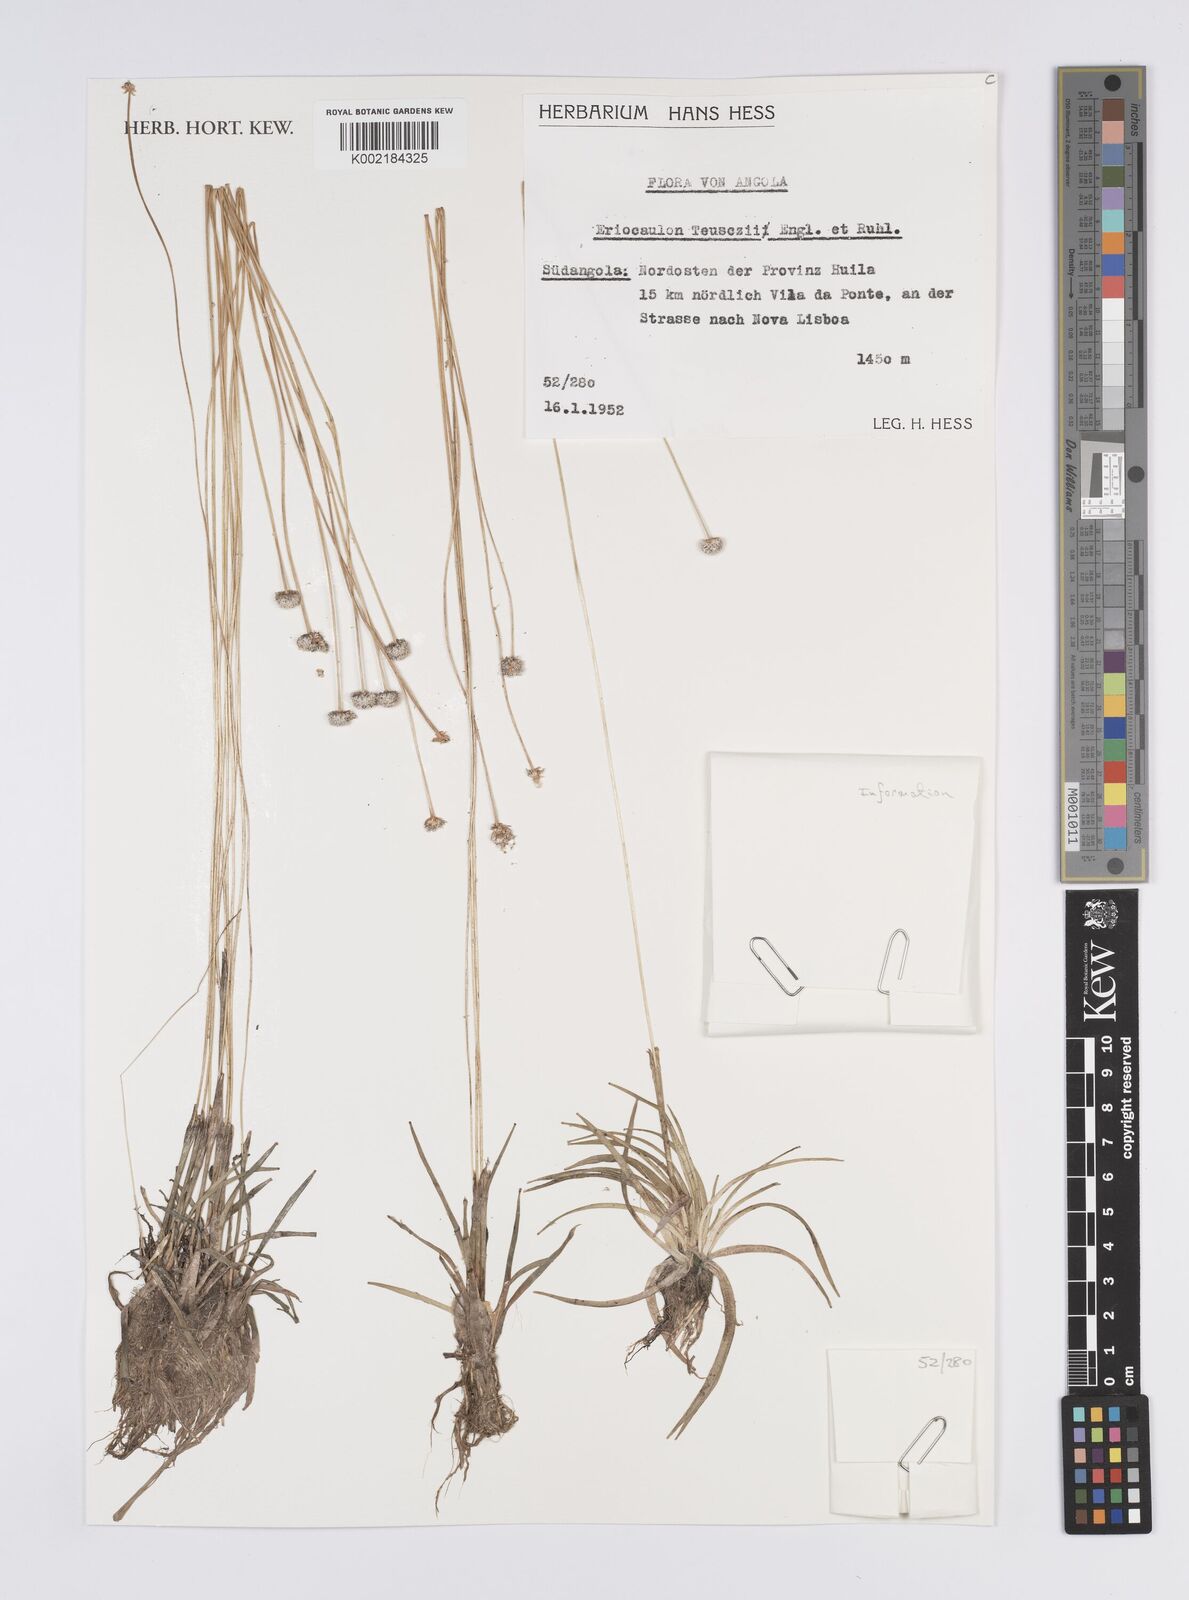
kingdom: Plantae
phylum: Tracheophyta
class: Liliopsida
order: Poales
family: Eriocaulaceae
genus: Eriocaulon
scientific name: Eriocaulon teusczii
